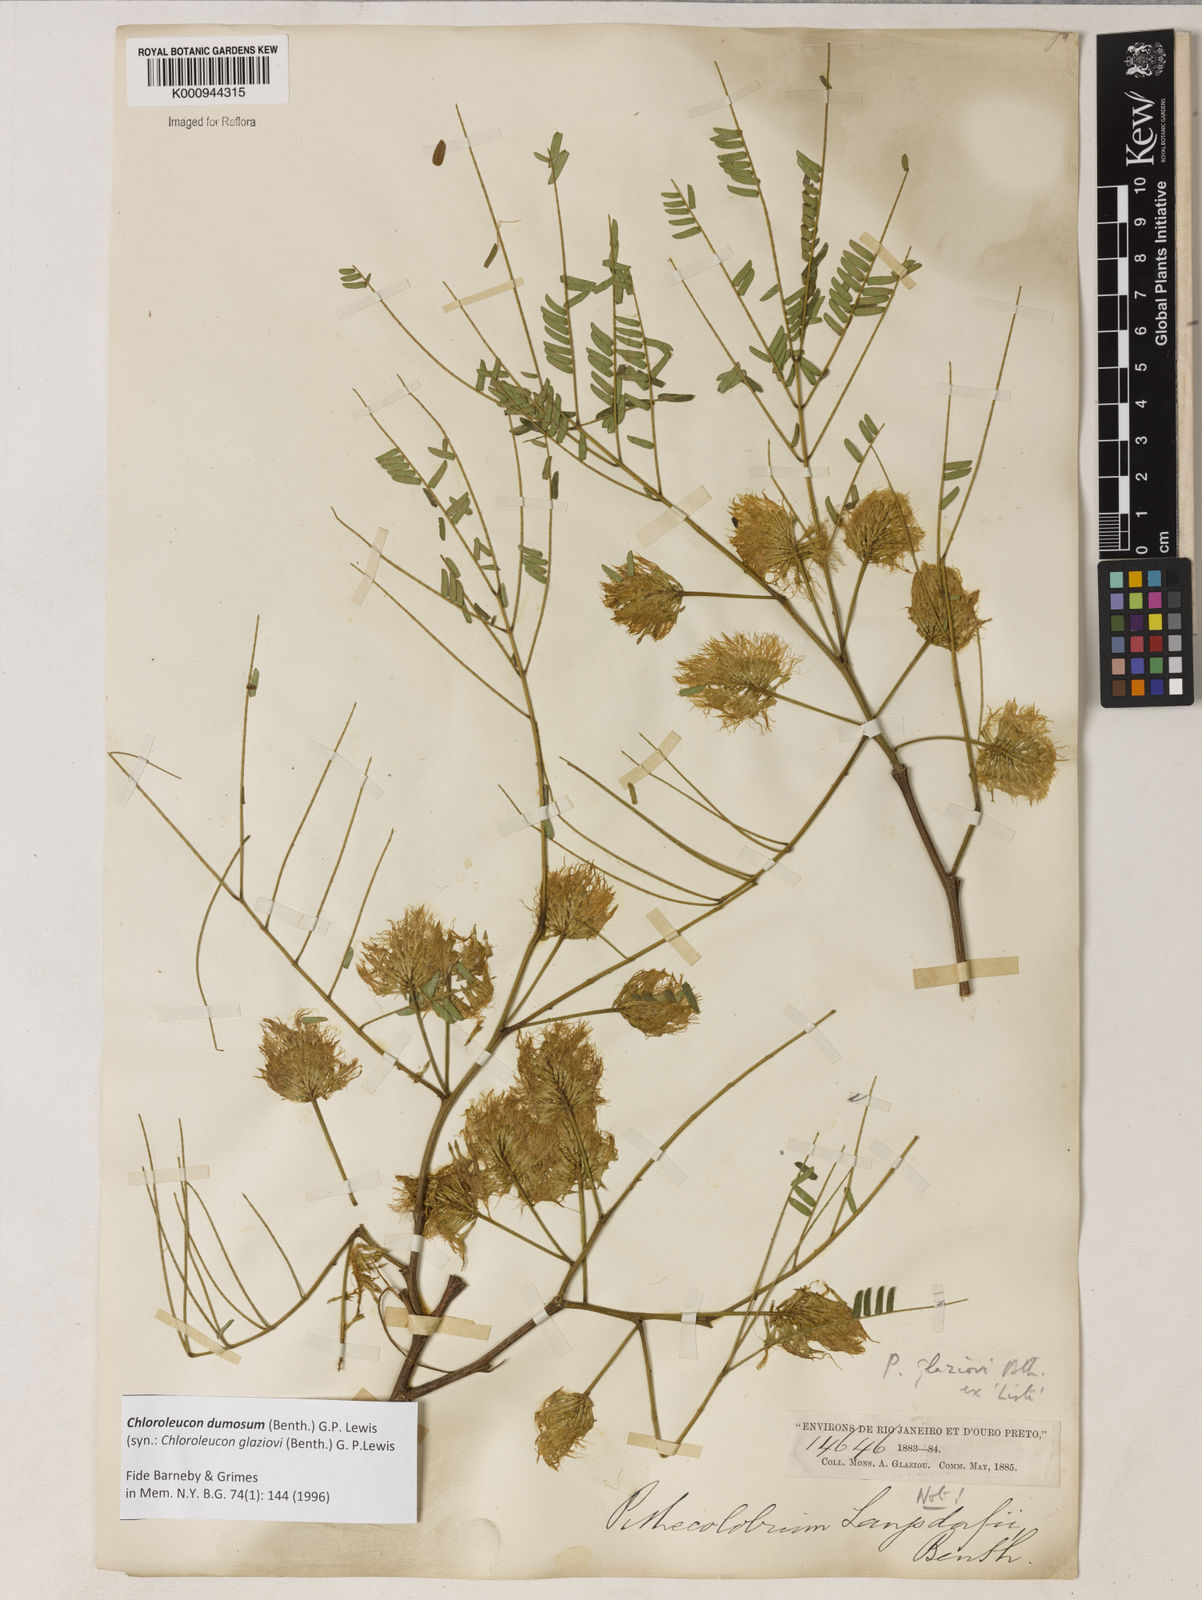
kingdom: Plantae
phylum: Tracheophyta
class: Magnoliopsida
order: Fabales
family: Fabaceae
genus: Inga
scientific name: Inga stenoptera
